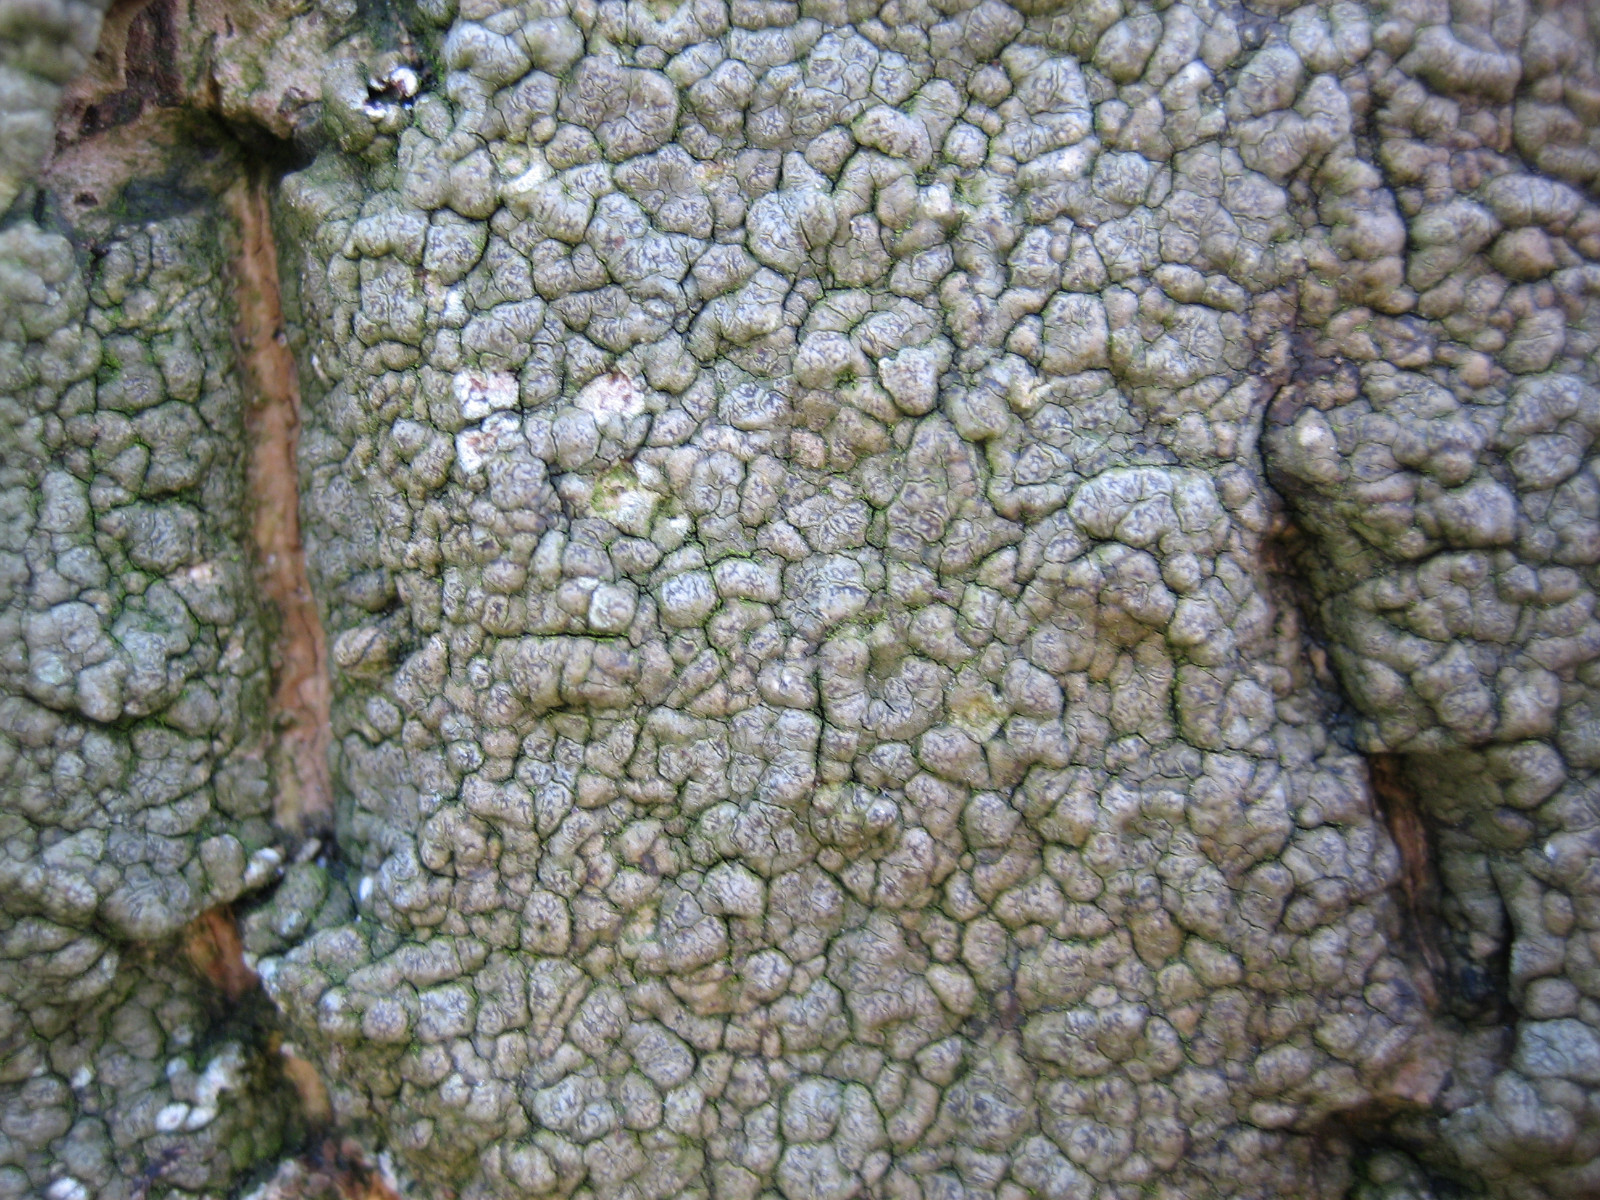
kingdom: Fungi
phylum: Ascomycota
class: Arthoniomycetes
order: Arthoniales
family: Roccellaceae
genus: Enterographa
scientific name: Enterographa crassa
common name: tyk prægelav
